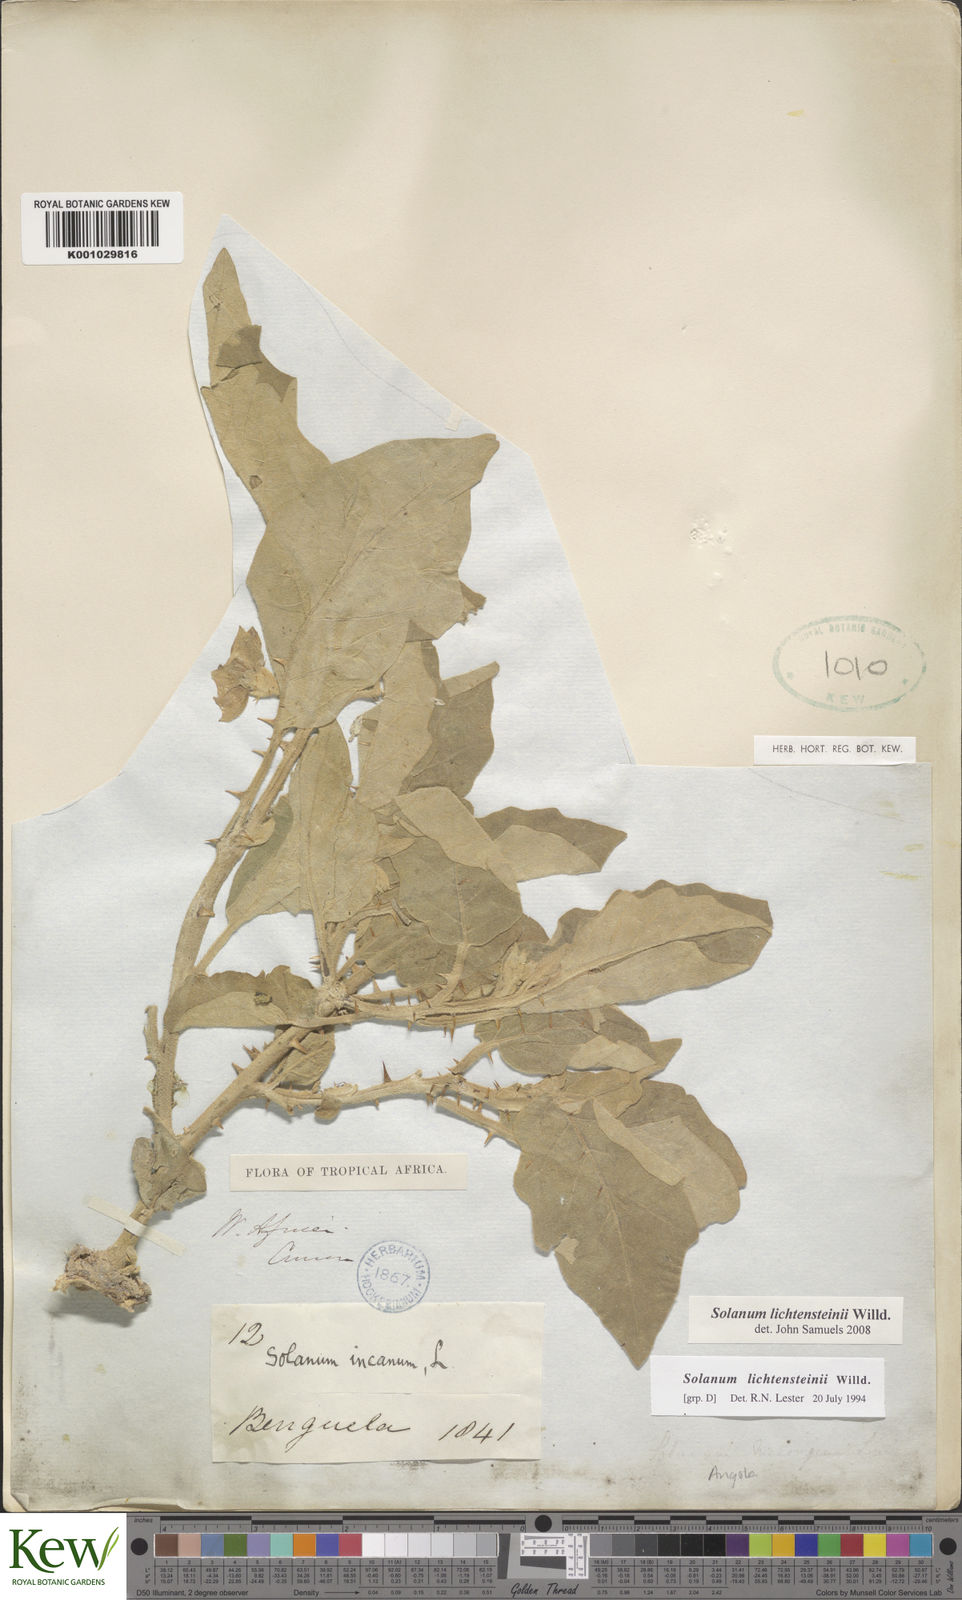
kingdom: Plantae
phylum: Tracheophyta
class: Magnoliopsida
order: Solanales
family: Solanaceae
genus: Solanum
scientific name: Solanum lichtensteinii
